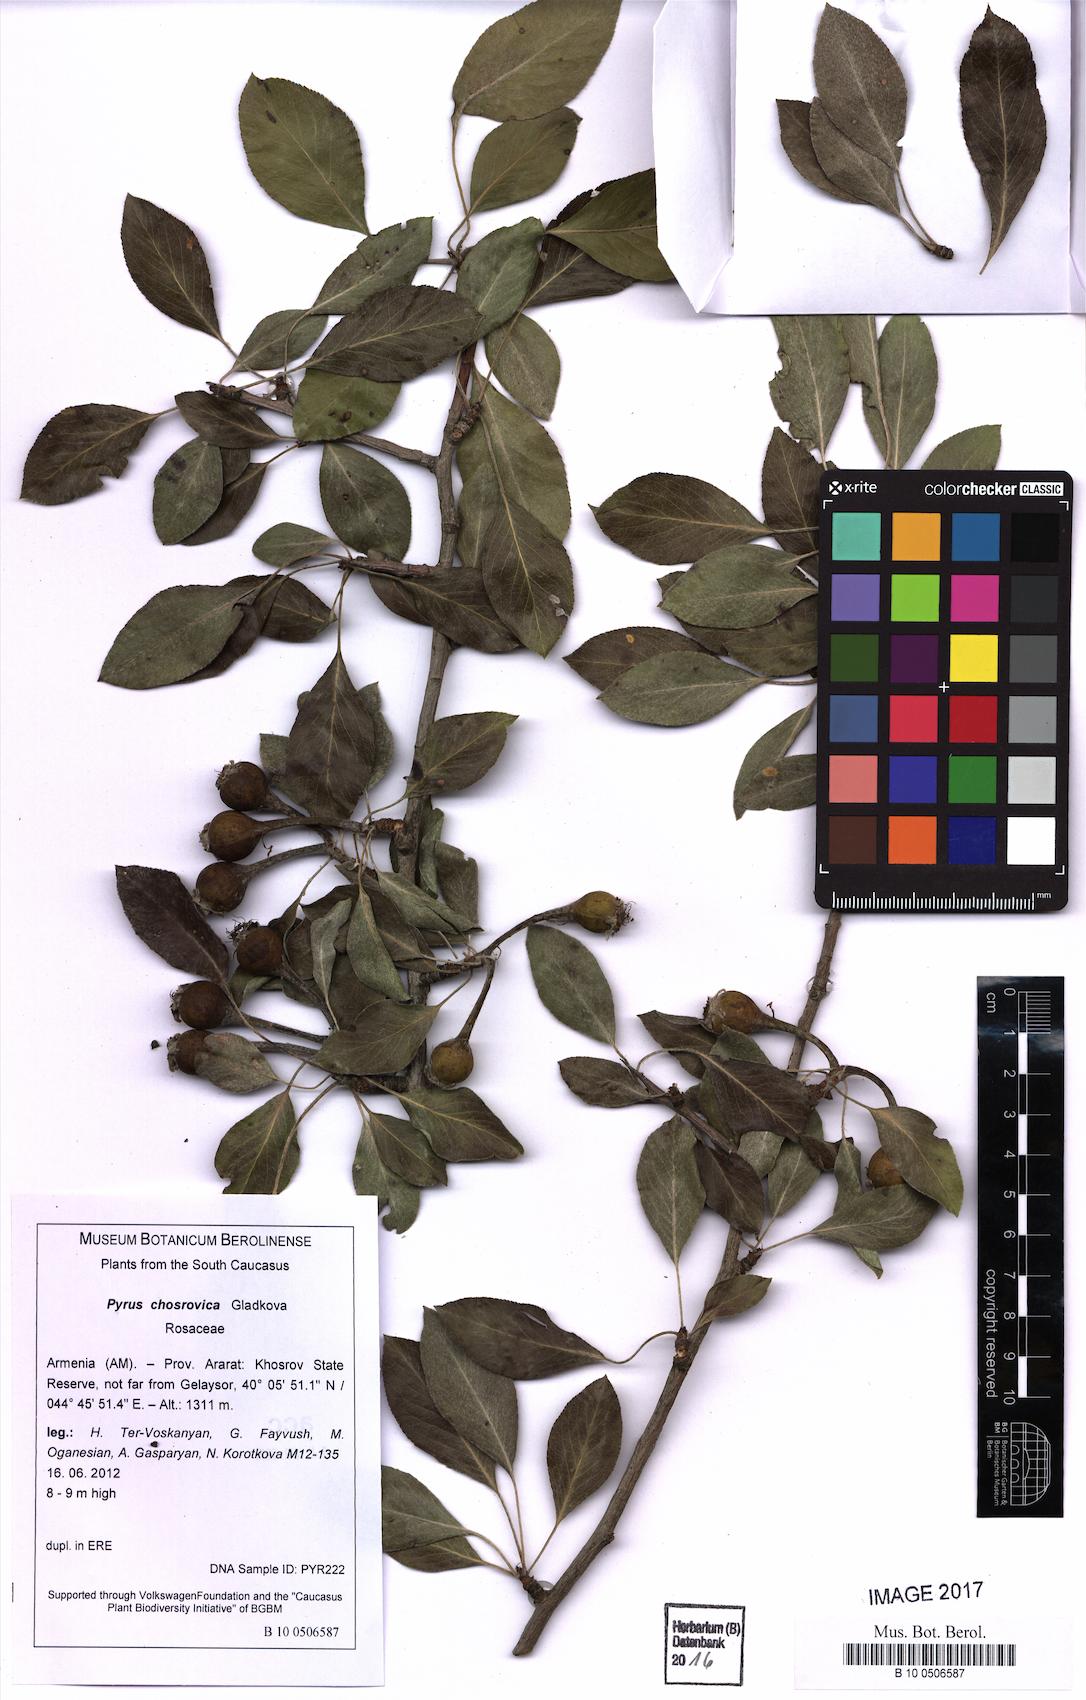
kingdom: Plantae
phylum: Tracheophyta
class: Magnoliopsida
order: Rosales
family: Rosaceae
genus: Pyrus
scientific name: Pyrus chosrovica
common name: Khosrovian pear
